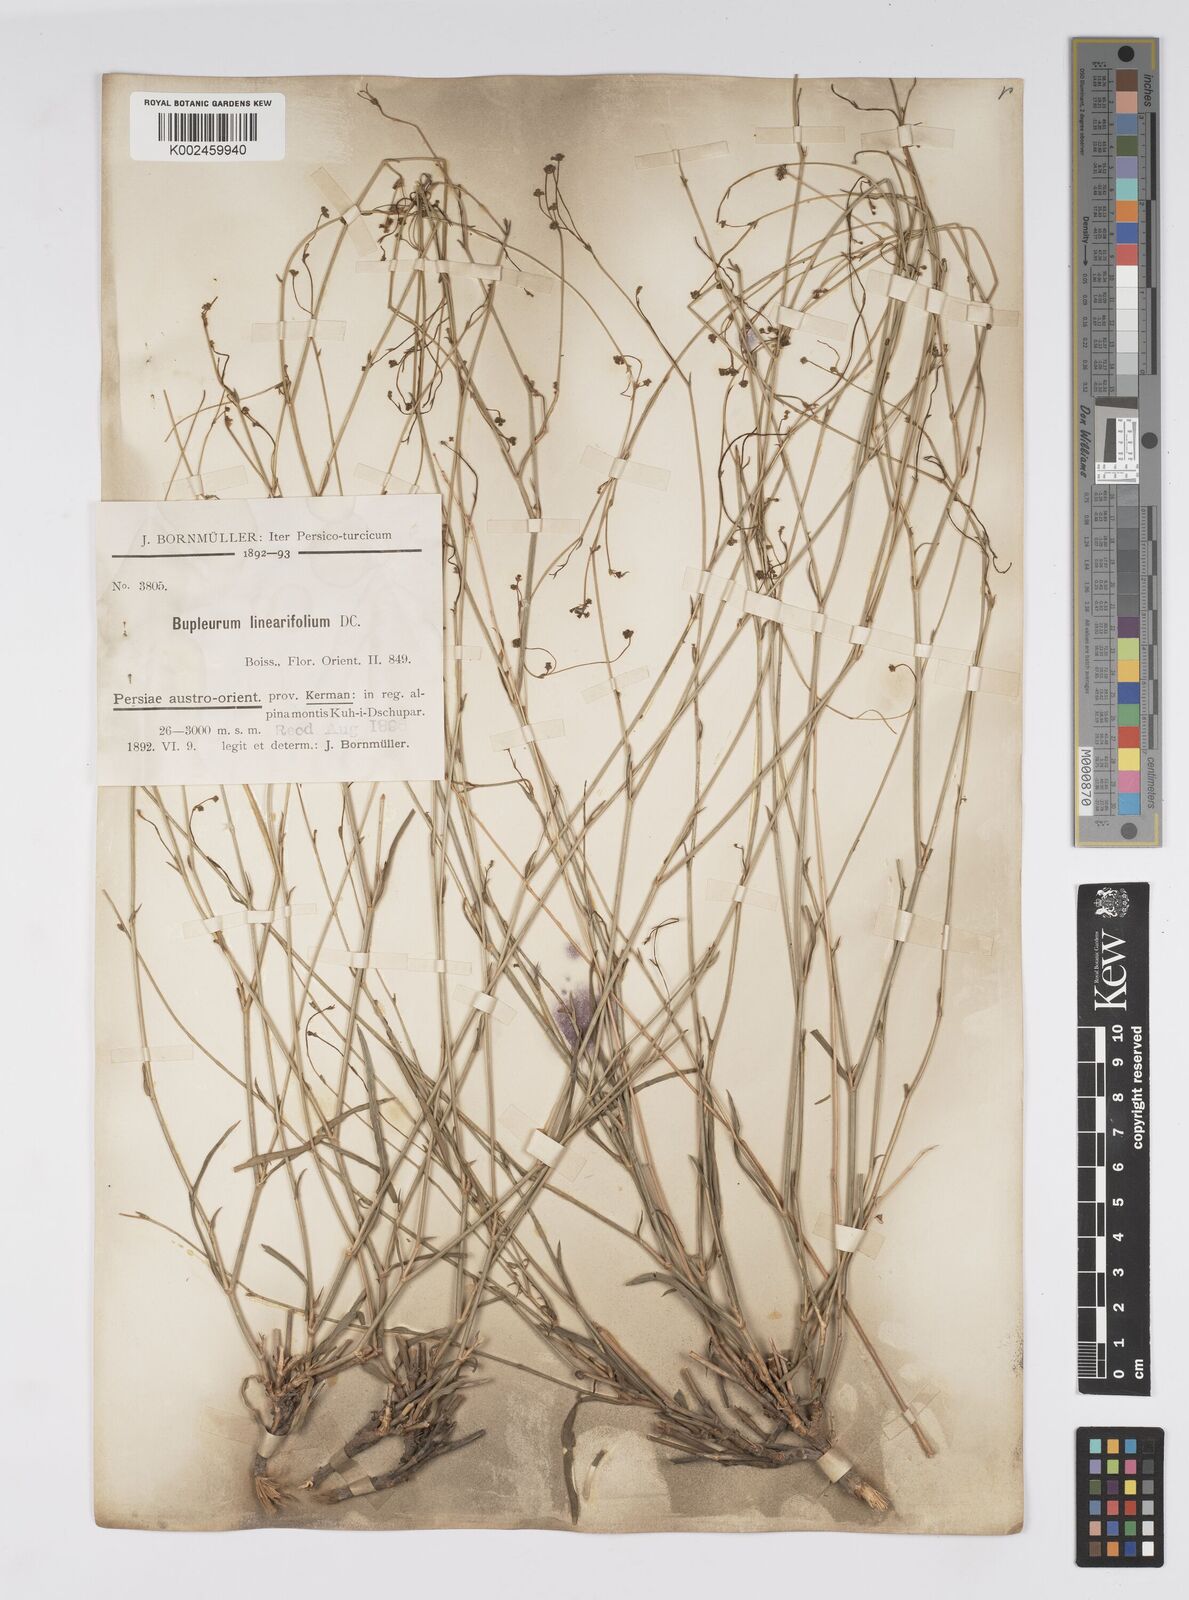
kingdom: Plantae
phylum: Tracheophyta
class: Magnoliopsida
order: Apiales
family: Apiaceae
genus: Bupleurum
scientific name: Bupleurum falcatum
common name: Sickle-leaved hare's-ear
